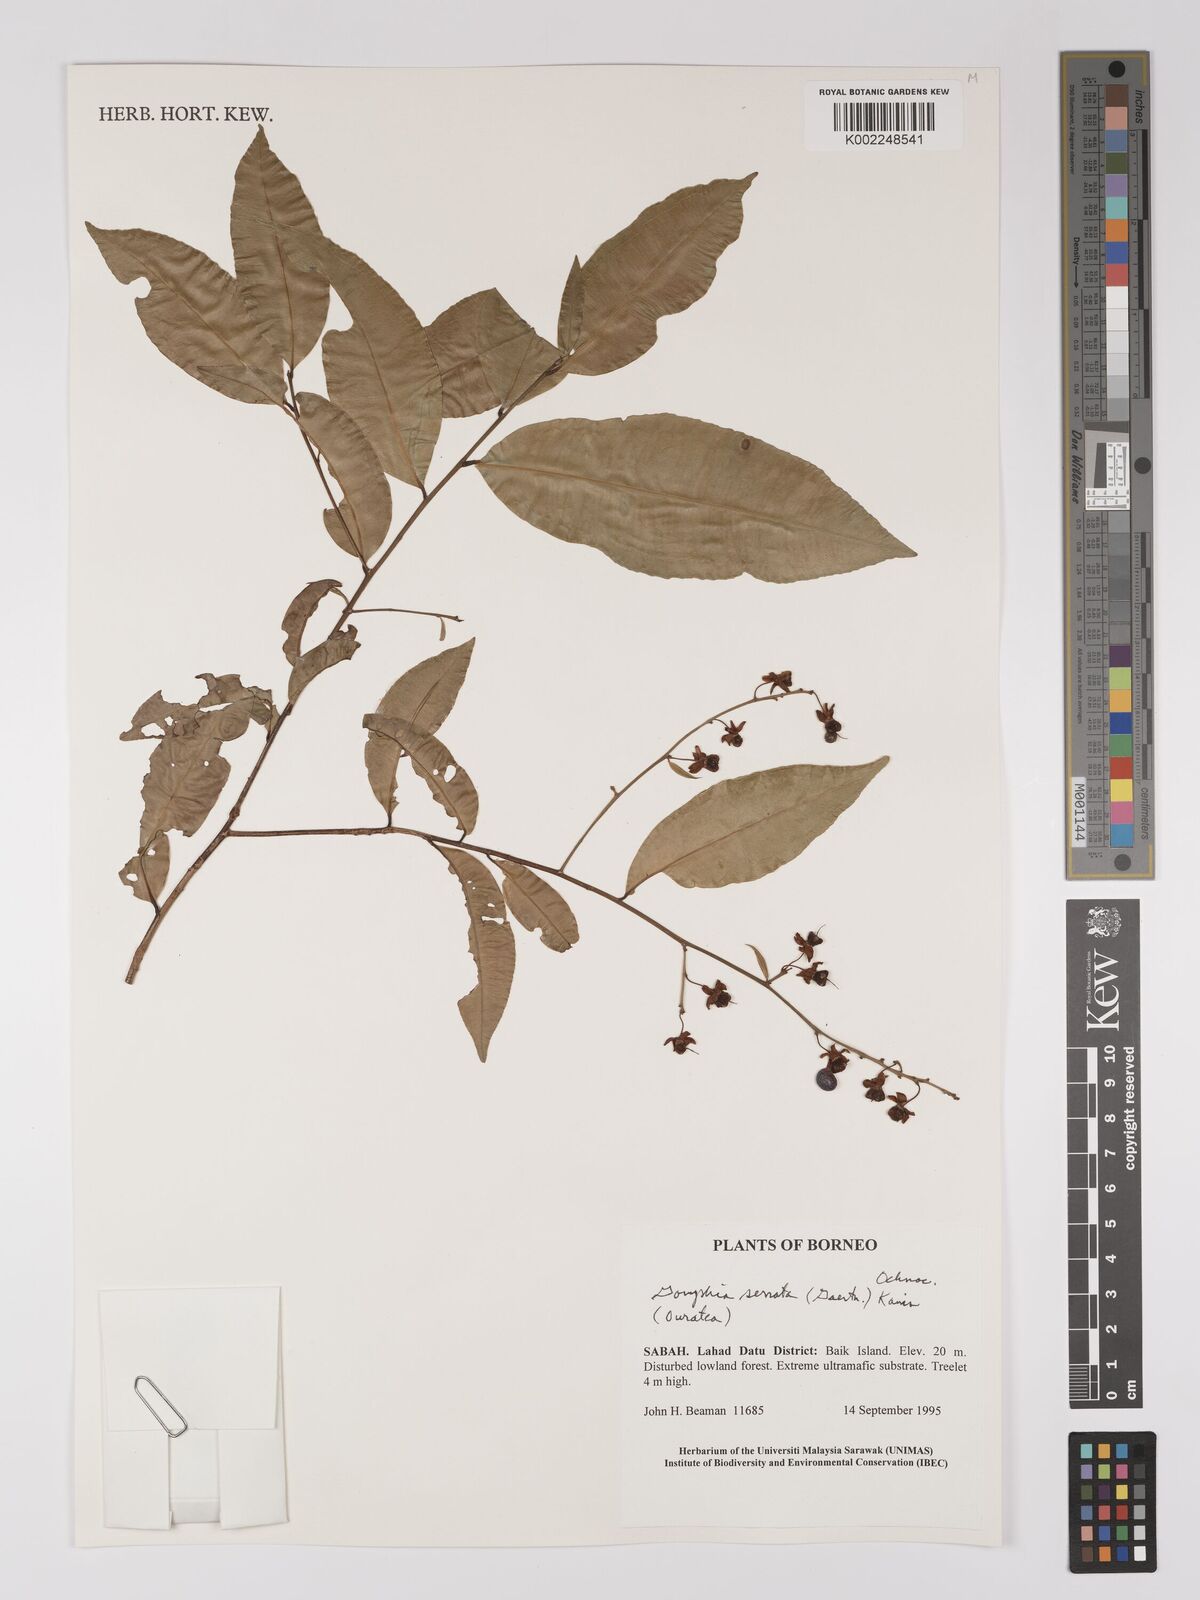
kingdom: Plantae
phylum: Tracheophyta
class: Magnoliopsida
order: Malpighiales
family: Ochnaceae
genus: Gomphia
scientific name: Gomphia serrata
